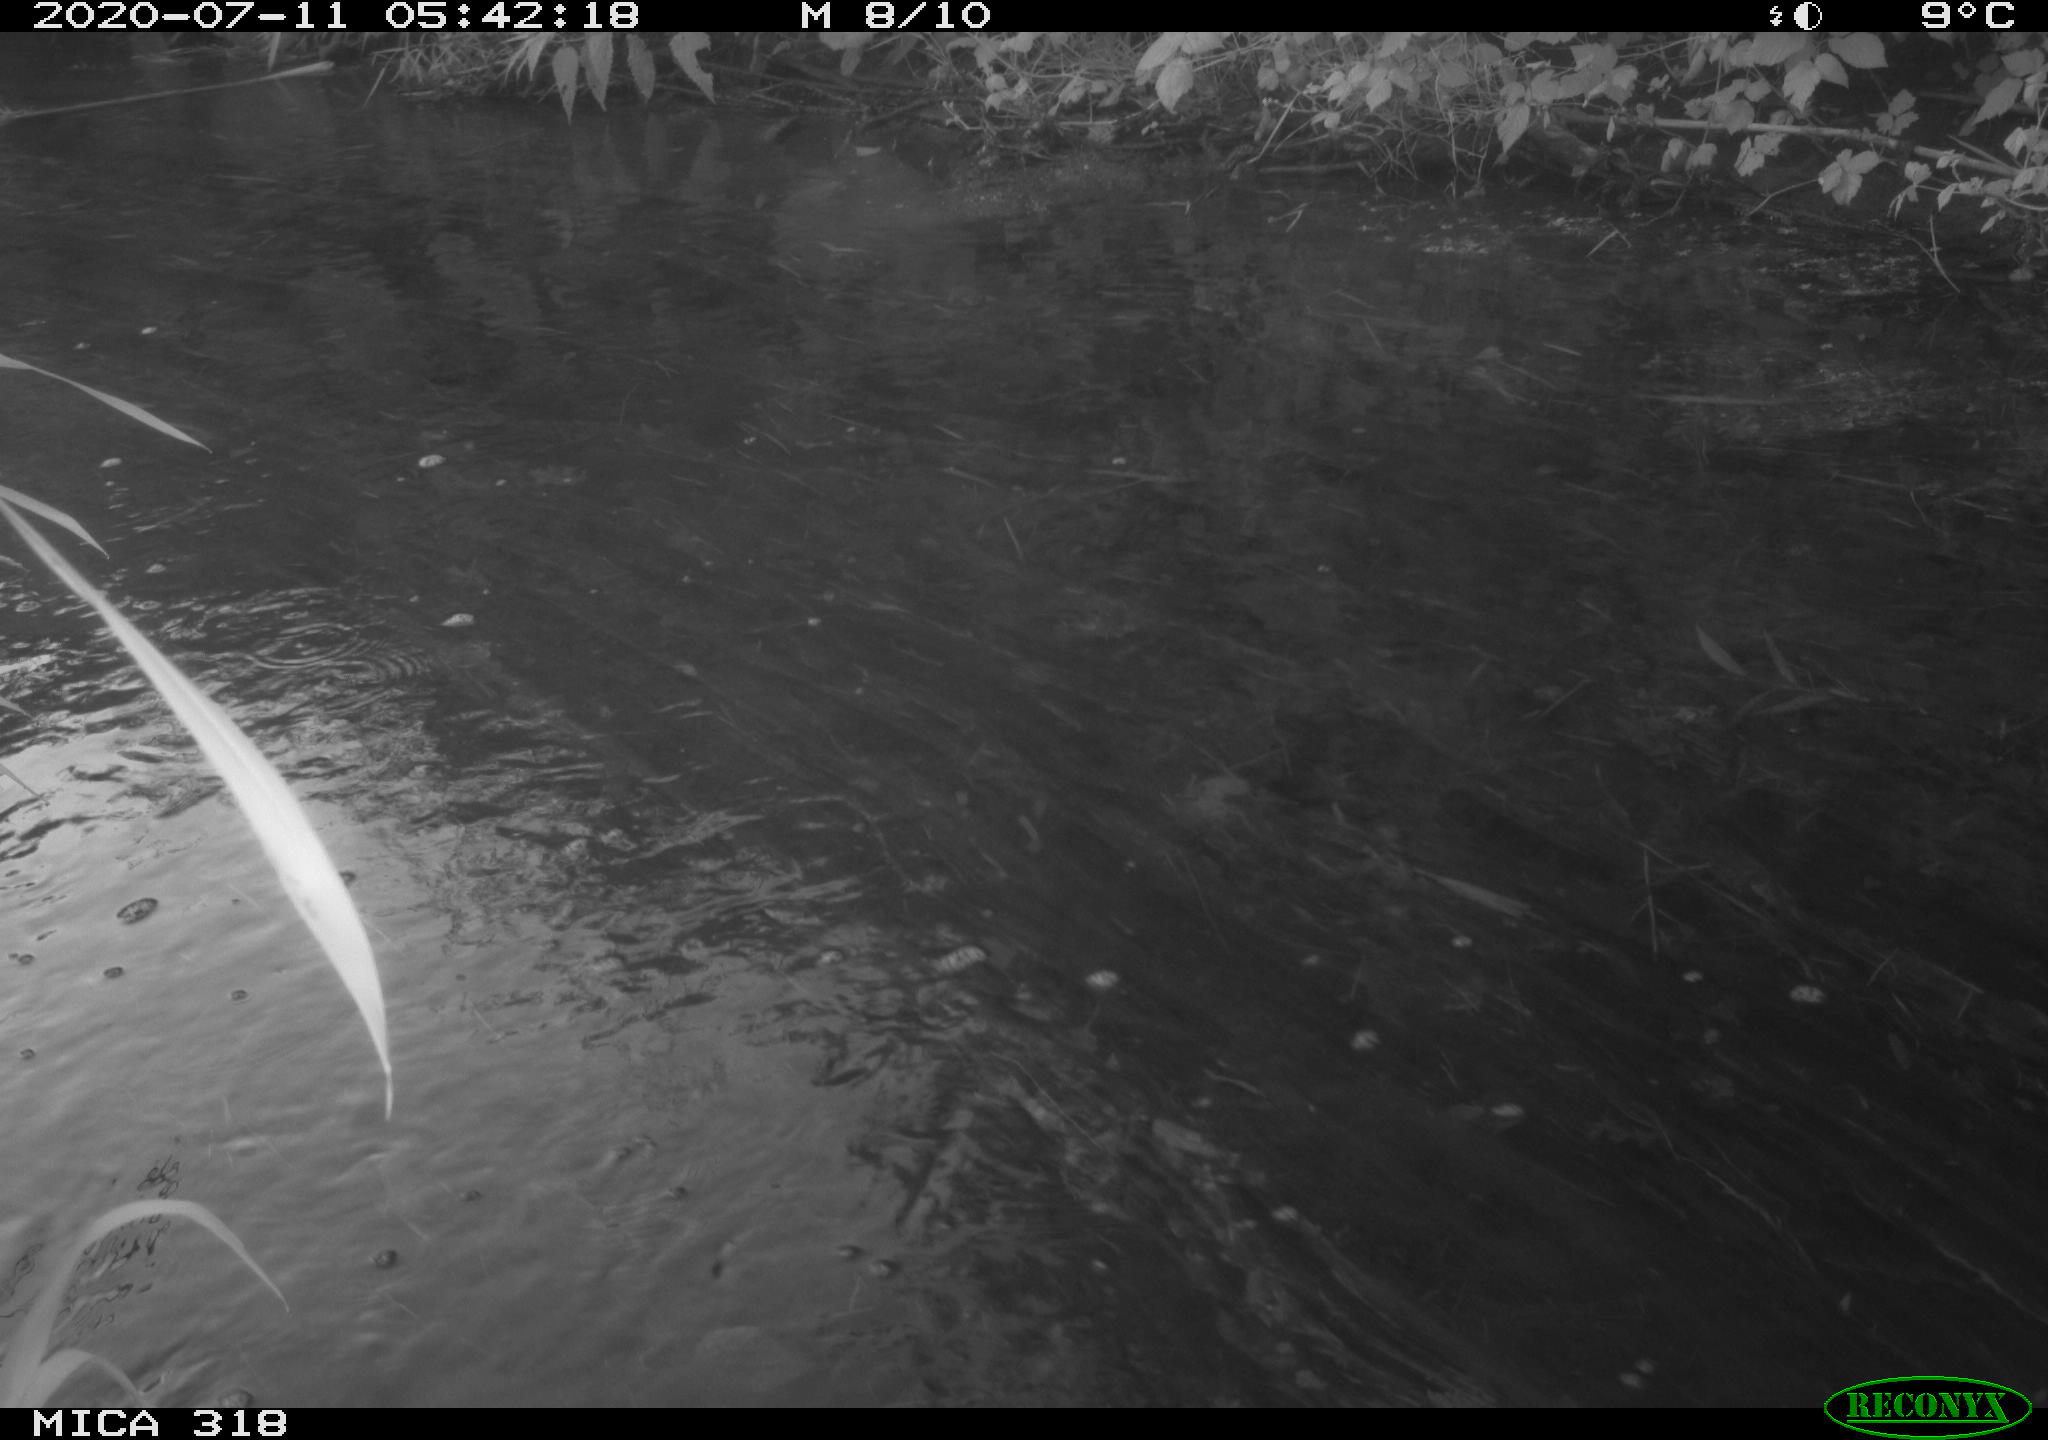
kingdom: Animalia
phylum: Chordata
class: Aves
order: Gruiformes
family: Rallidae
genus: Gallinula
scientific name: Gallinula chloropus
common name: Common moorhen
